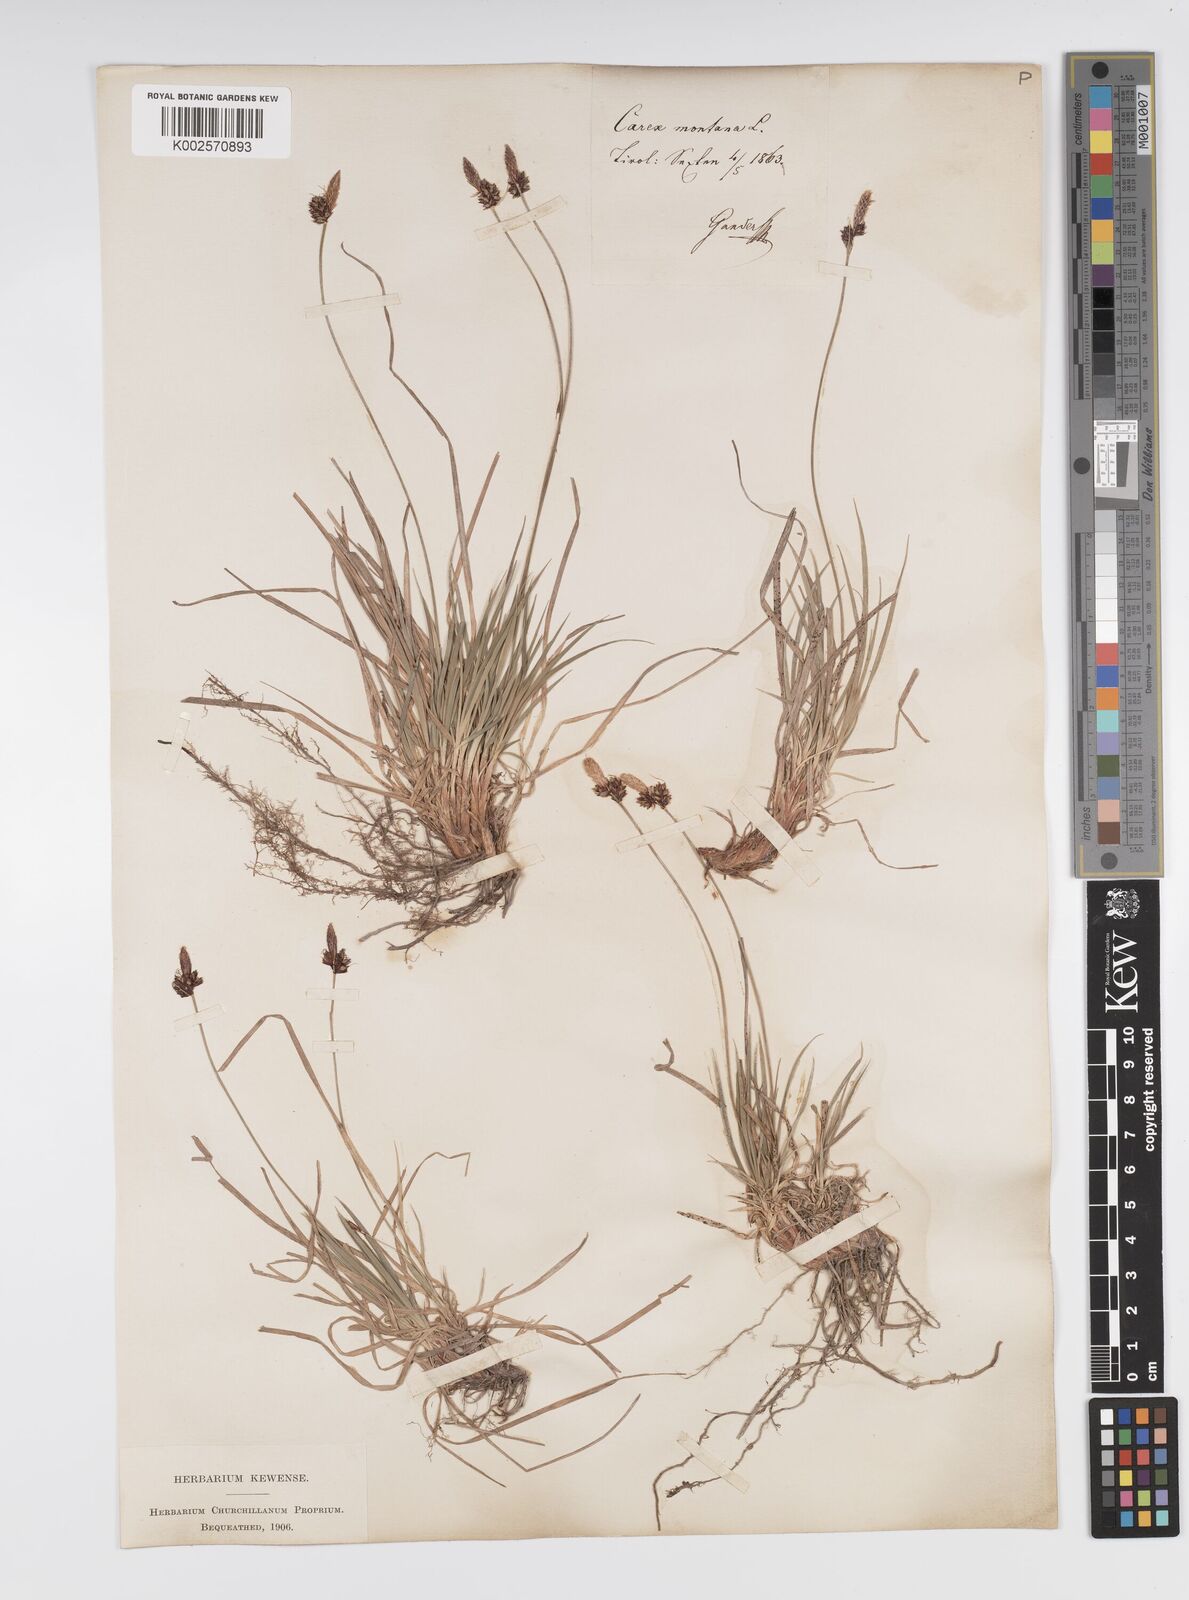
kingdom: Plantae
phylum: Tracheophyta
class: Liliopsida
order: Poales
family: Cyperaceae
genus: Carex
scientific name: Carex montana
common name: Soft-leaved sedge
